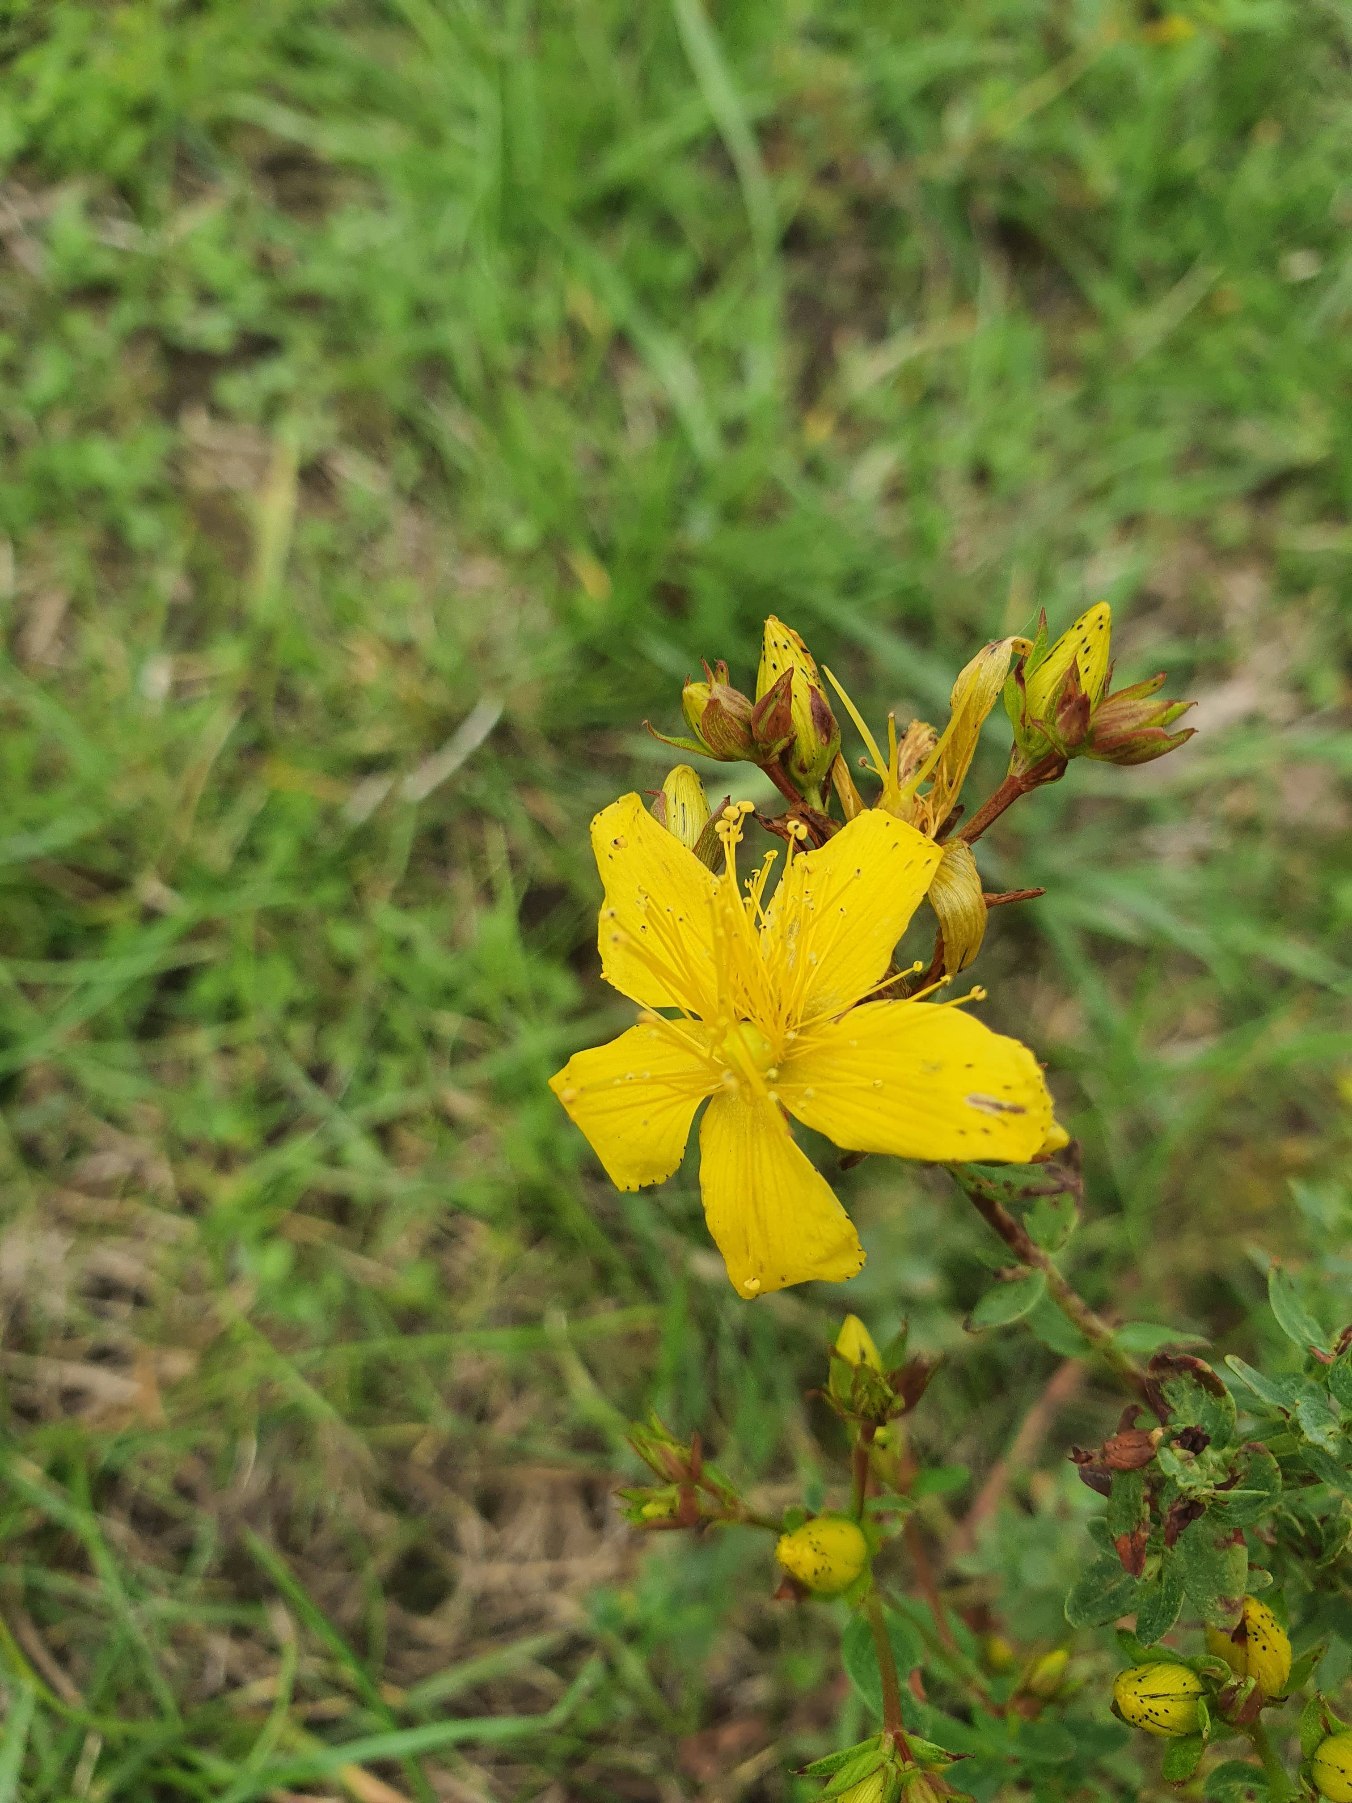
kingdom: Plantae
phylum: Tracheophyta
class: Magnoliopsida
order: Malpighiales
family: Hypericaceae
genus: Hypericum
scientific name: Hypericum perforatum
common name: Prikbladet perikon
